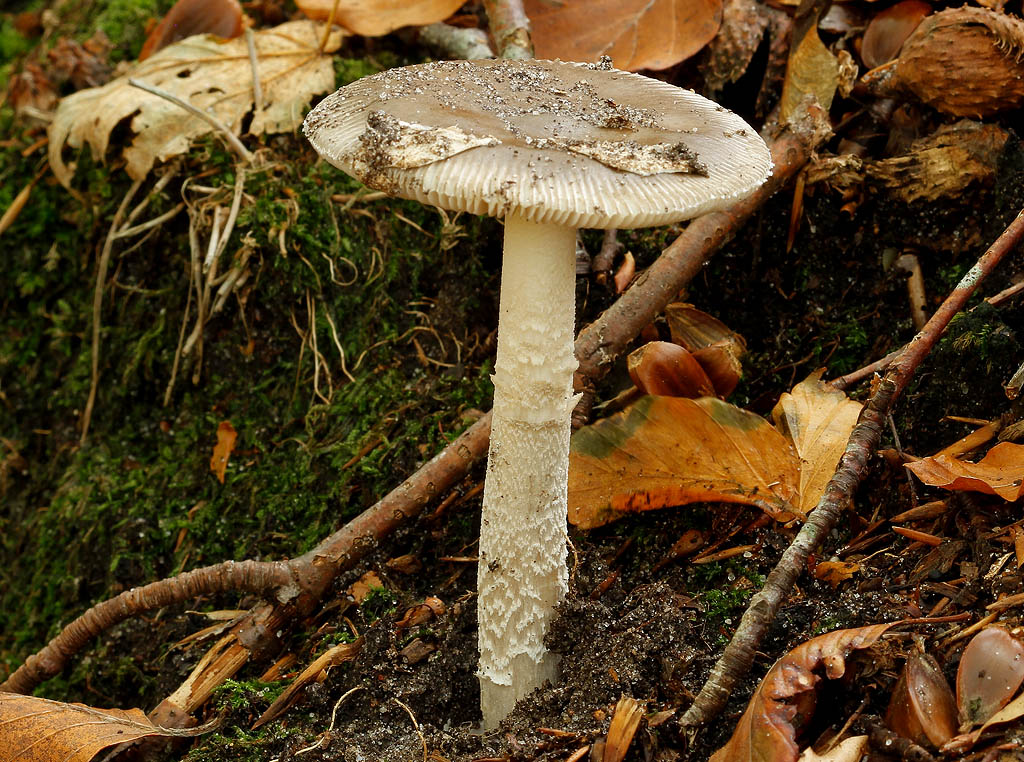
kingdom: Fungi
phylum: Basidiomycota
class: Agaricomycetes
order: Agaricales
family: Amanitaceae
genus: Amanita
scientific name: Amanita submembranacea
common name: gråspættet kam-fluesvamp
